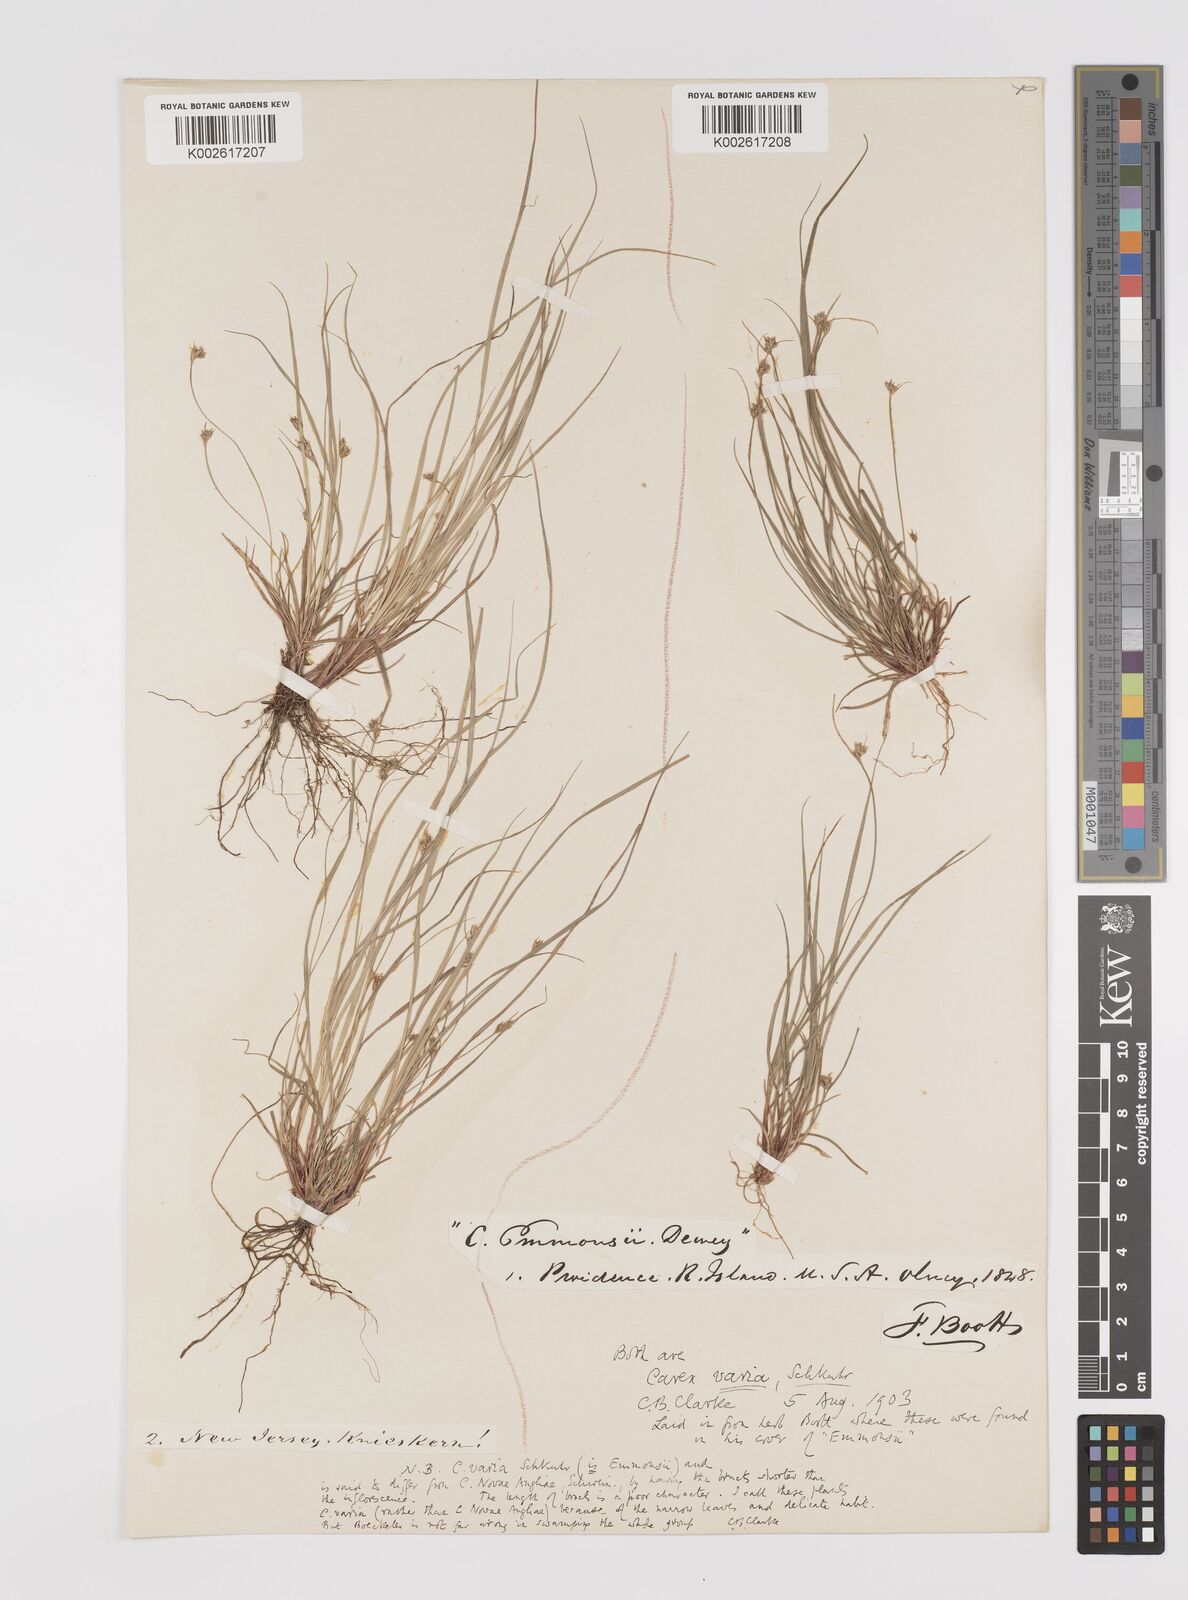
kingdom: Plantae
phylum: Tracheophyta
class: Liliopsida
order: Poales
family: Cyperaceae
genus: Carex
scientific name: Carex albicans
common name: Bellow-beaked sedge
